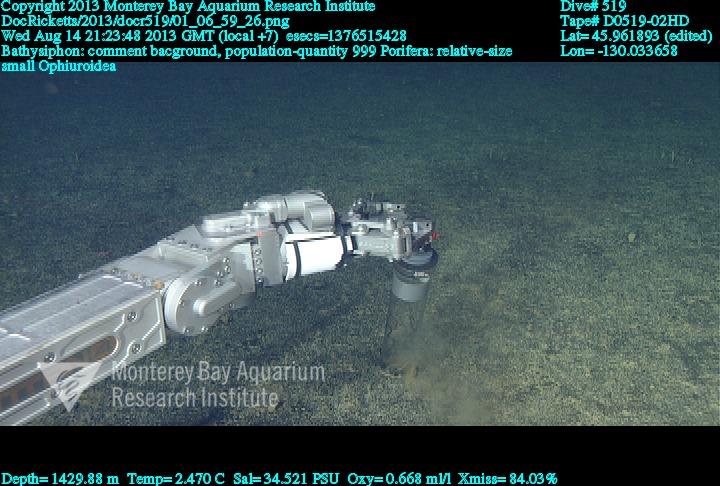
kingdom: Animalia
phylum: Porifera
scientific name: Porifera
